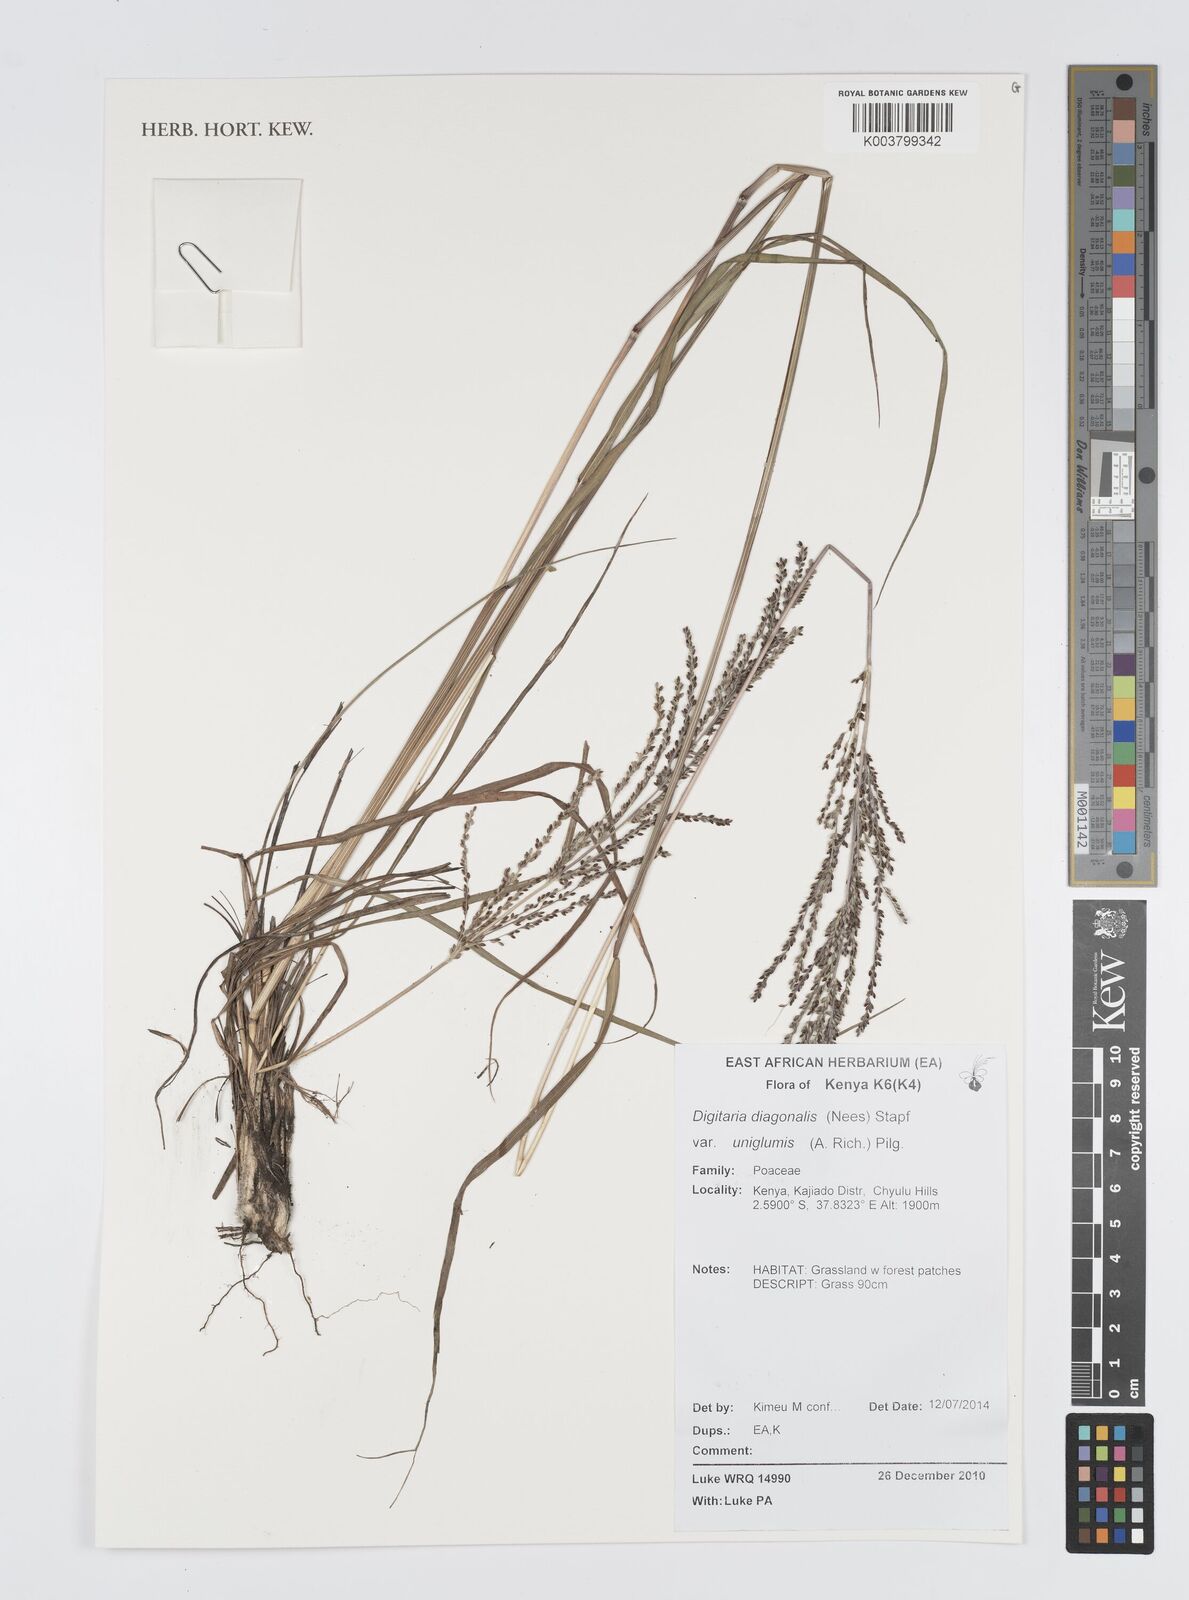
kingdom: Plantae
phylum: Tracheophyta
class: Liliopsida
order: Poales
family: Poaceae
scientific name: Poaceae
